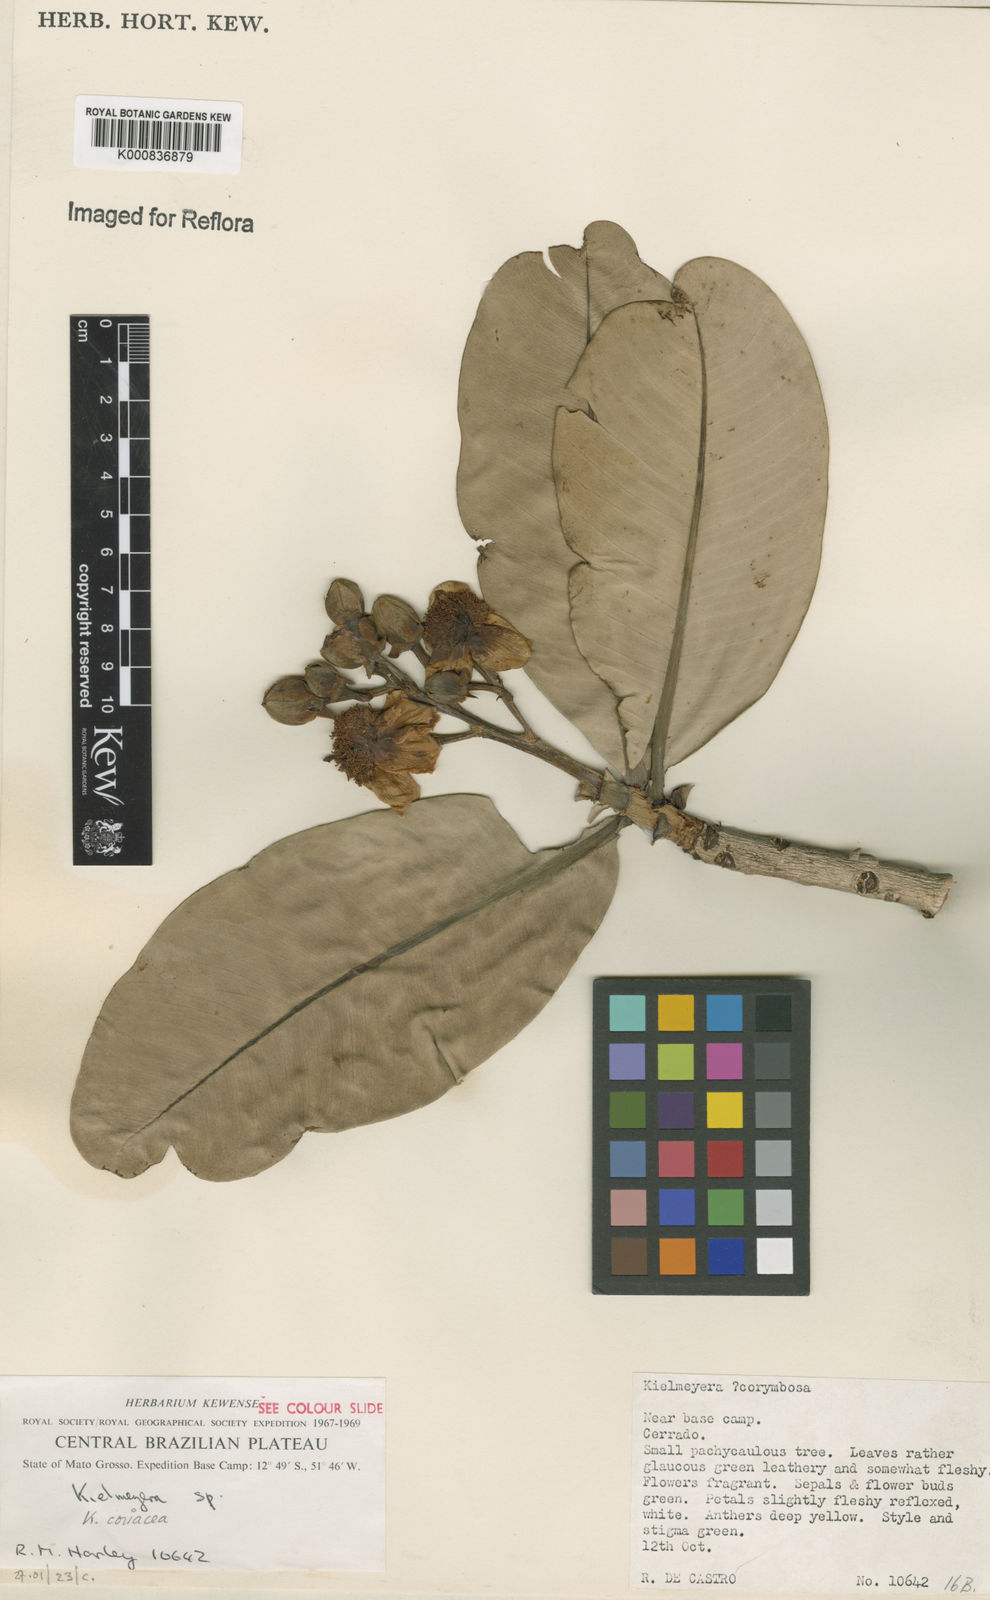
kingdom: Plantae
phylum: Tracheophyta
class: Magnoliopsida
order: Malpighiales
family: Calophyllaceae
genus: Kielmeyera
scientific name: Kielmeyera coriacea
